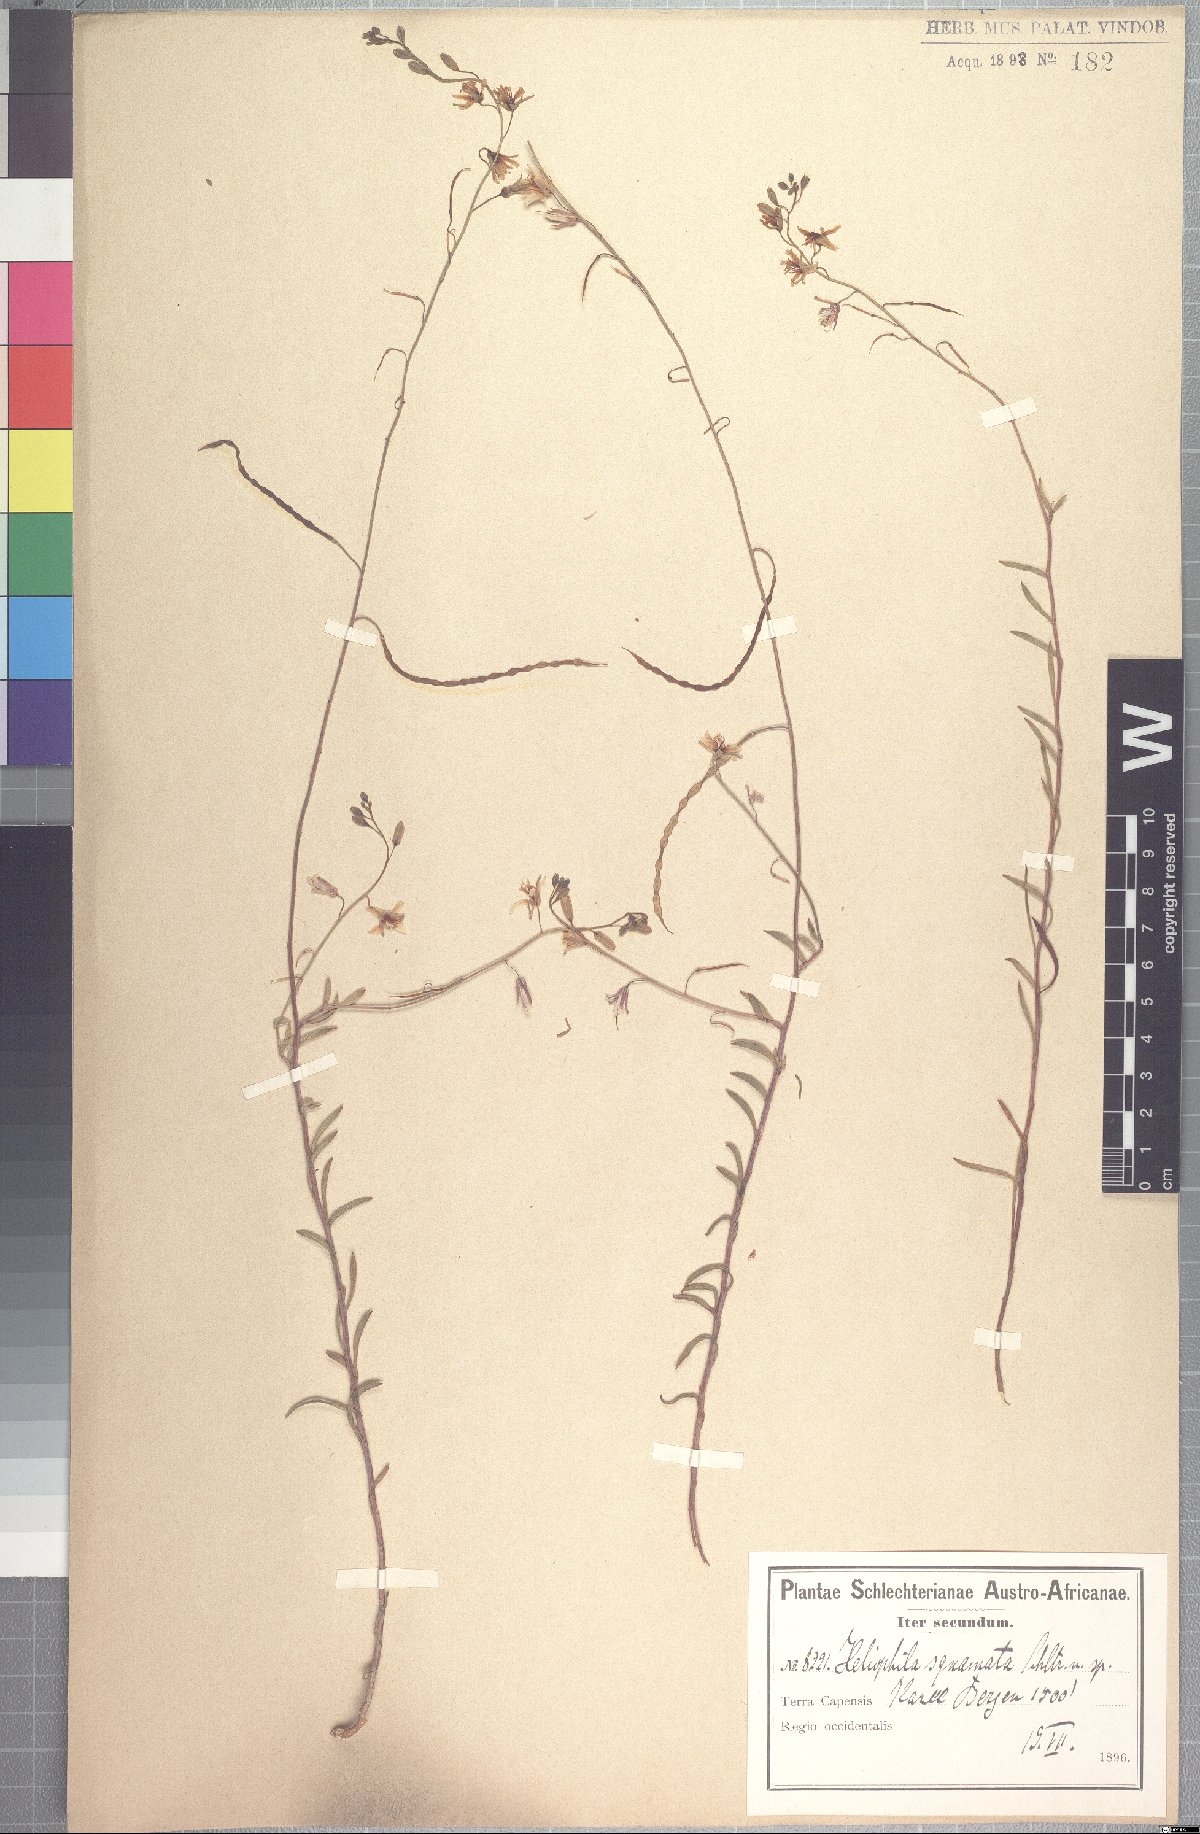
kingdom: Plantae
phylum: Tracheophyta
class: Magnoliopsida
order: Brassicales
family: Brassicaceae
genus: Heliophila
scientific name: Heliophila cornuta
